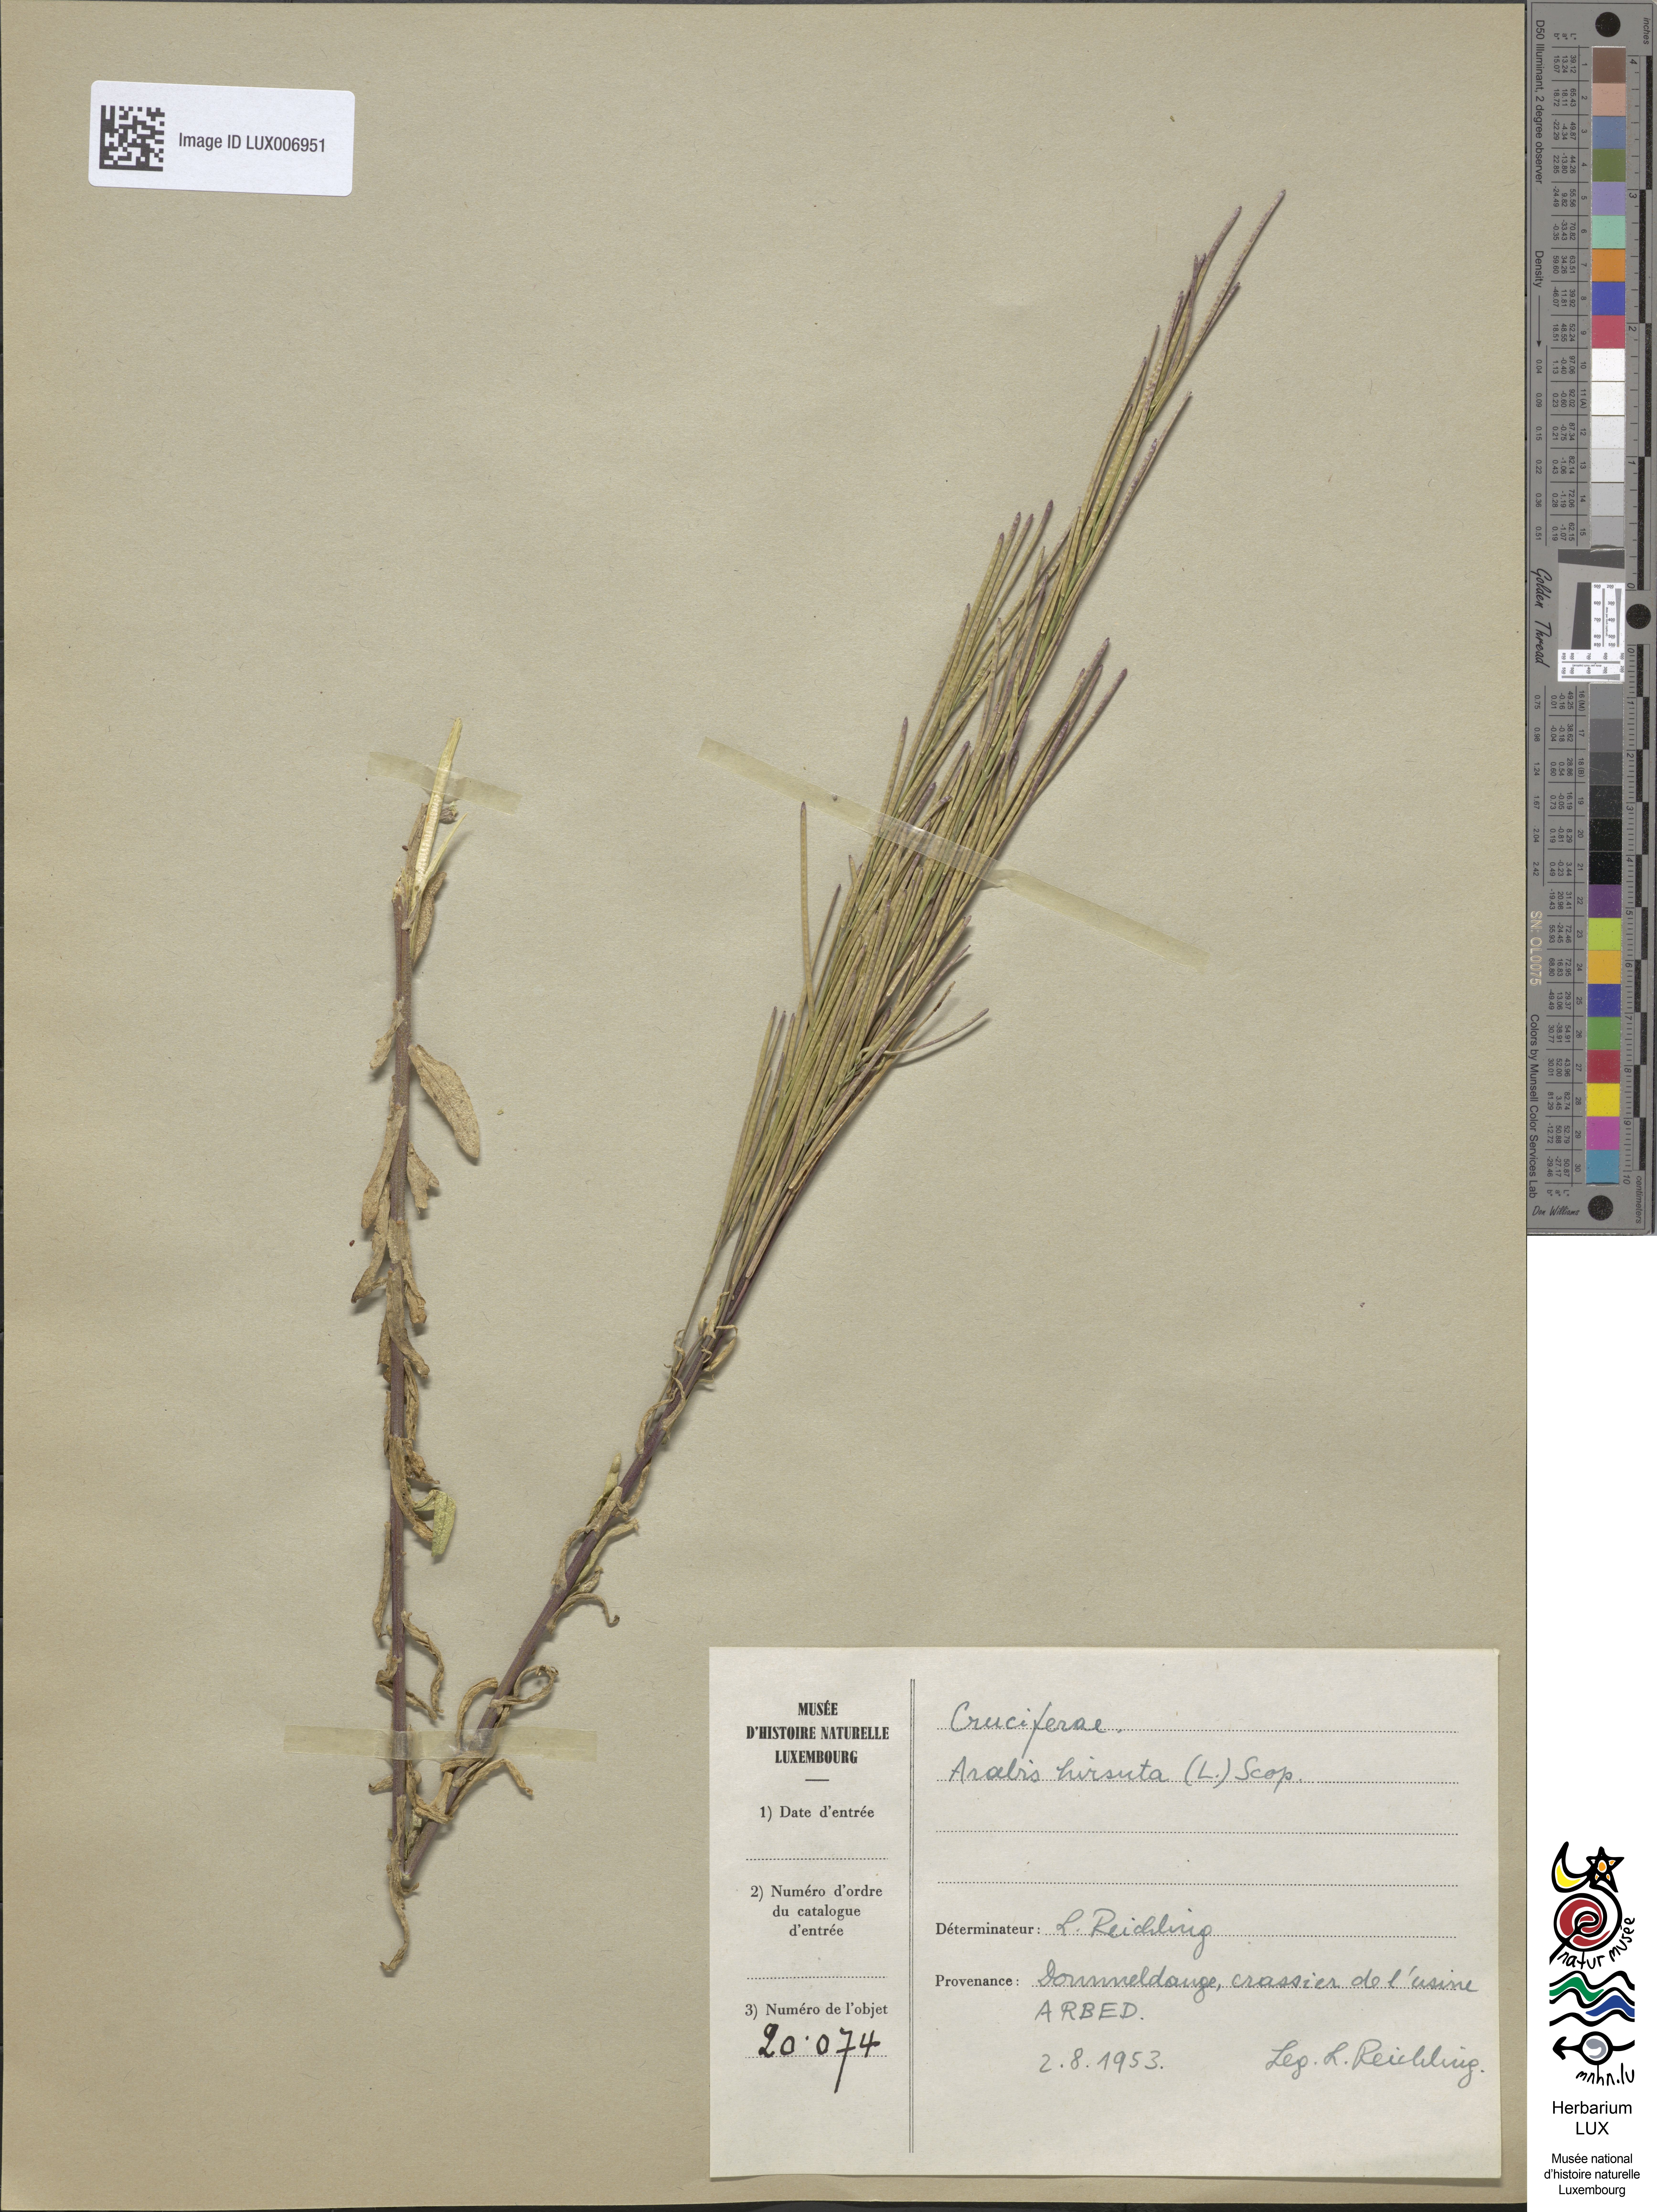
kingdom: Plantae
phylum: Tracheophyta
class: Magnoliopsida
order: Brassicales
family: Brassicaceae
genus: Arabis
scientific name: Arabis hirsuta
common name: Hairy rock-cress
